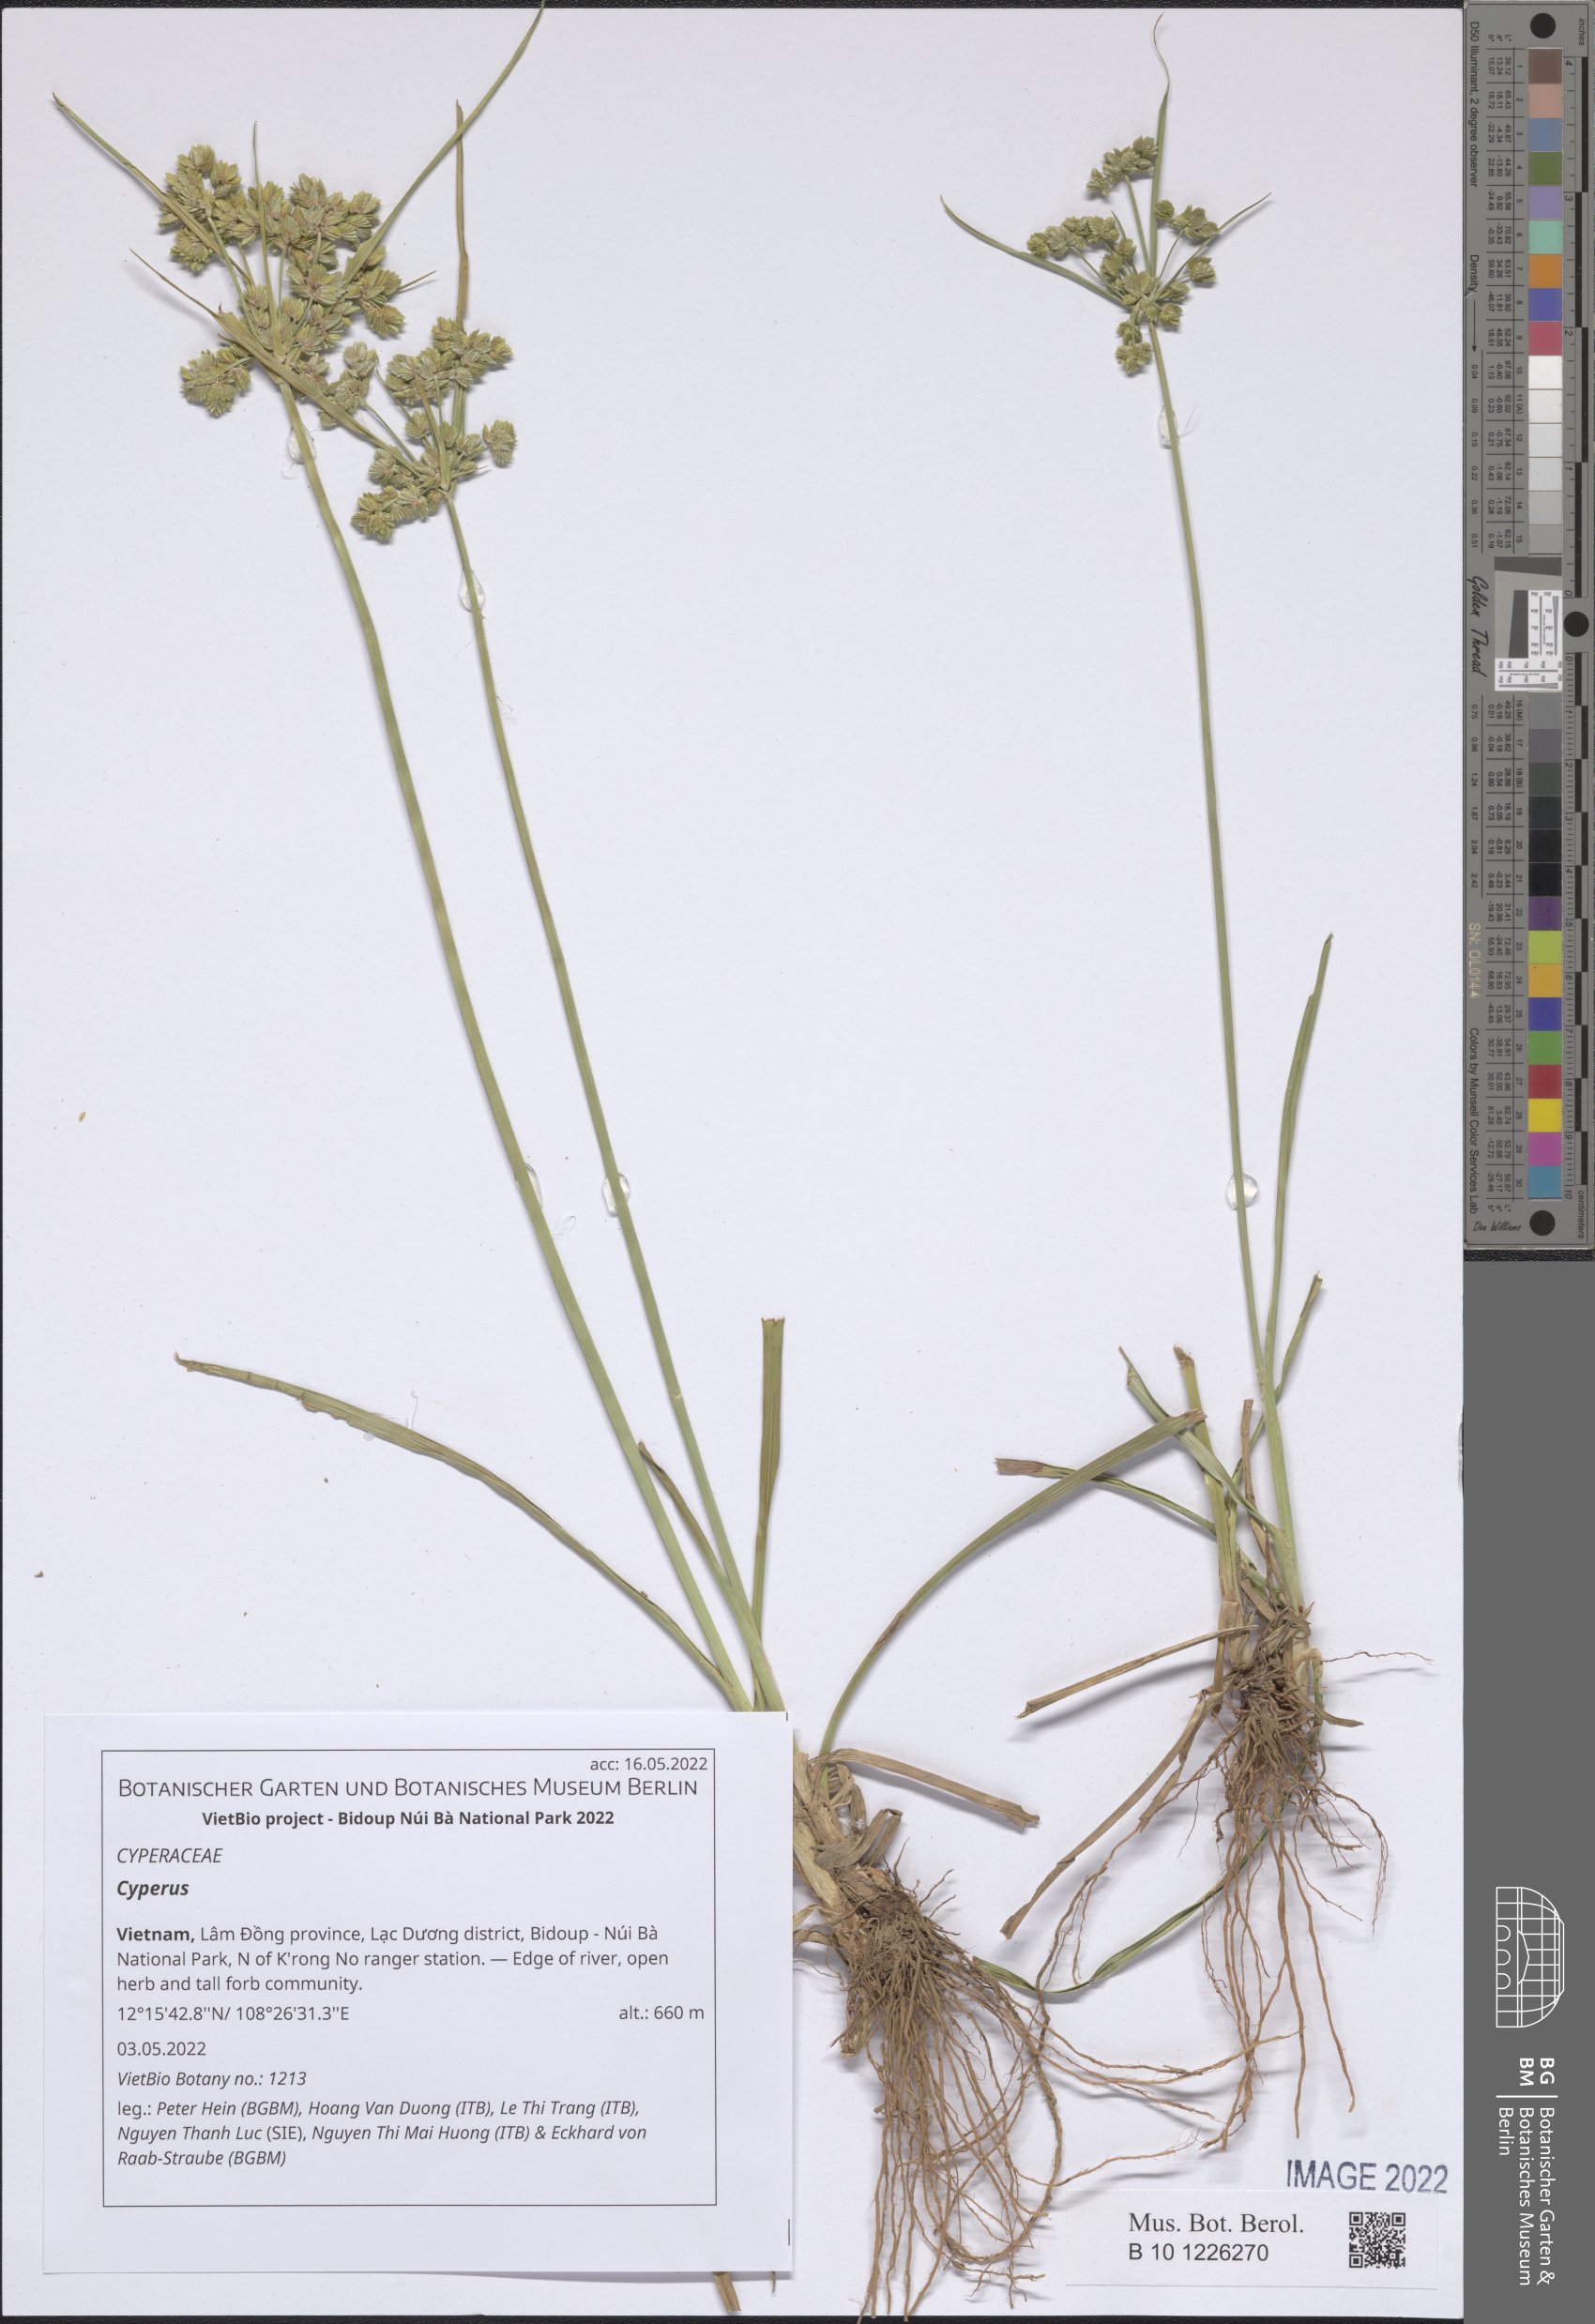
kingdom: Plantae
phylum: Tracheophyta
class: Liliopsida
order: Poales
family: Cyperaceae
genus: Cyperus
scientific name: Cyperus
